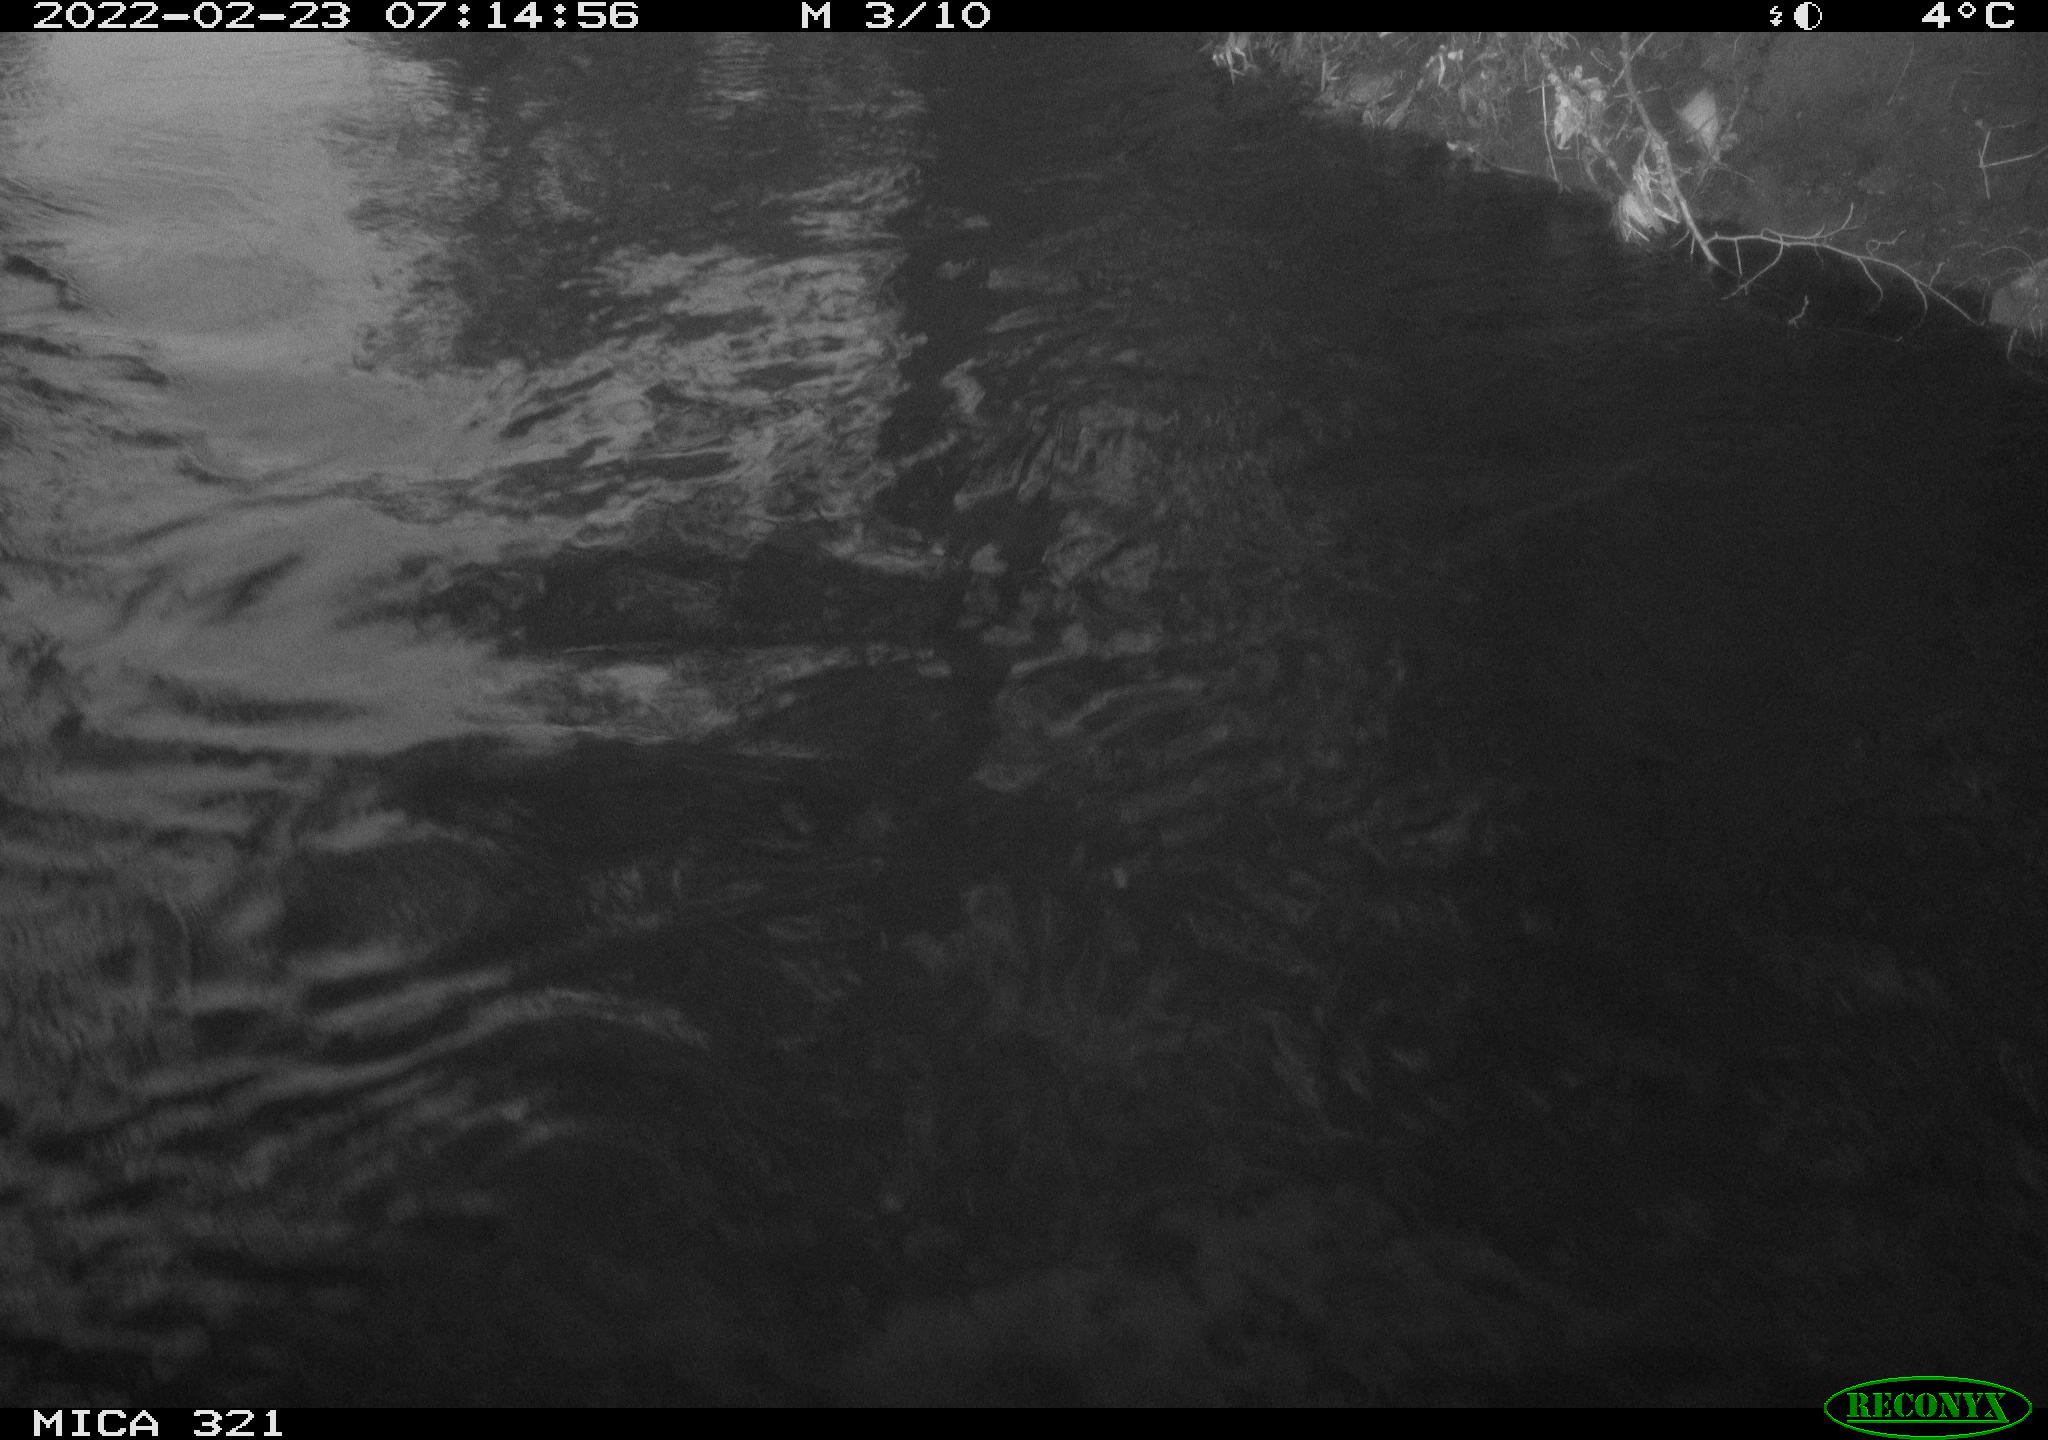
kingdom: Animalia
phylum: Chordata
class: Aves
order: Suliformes
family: Phalacrocoracidae
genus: Phalacrocorax
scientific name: Phalacrocorax carbo
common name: Great cormorant
